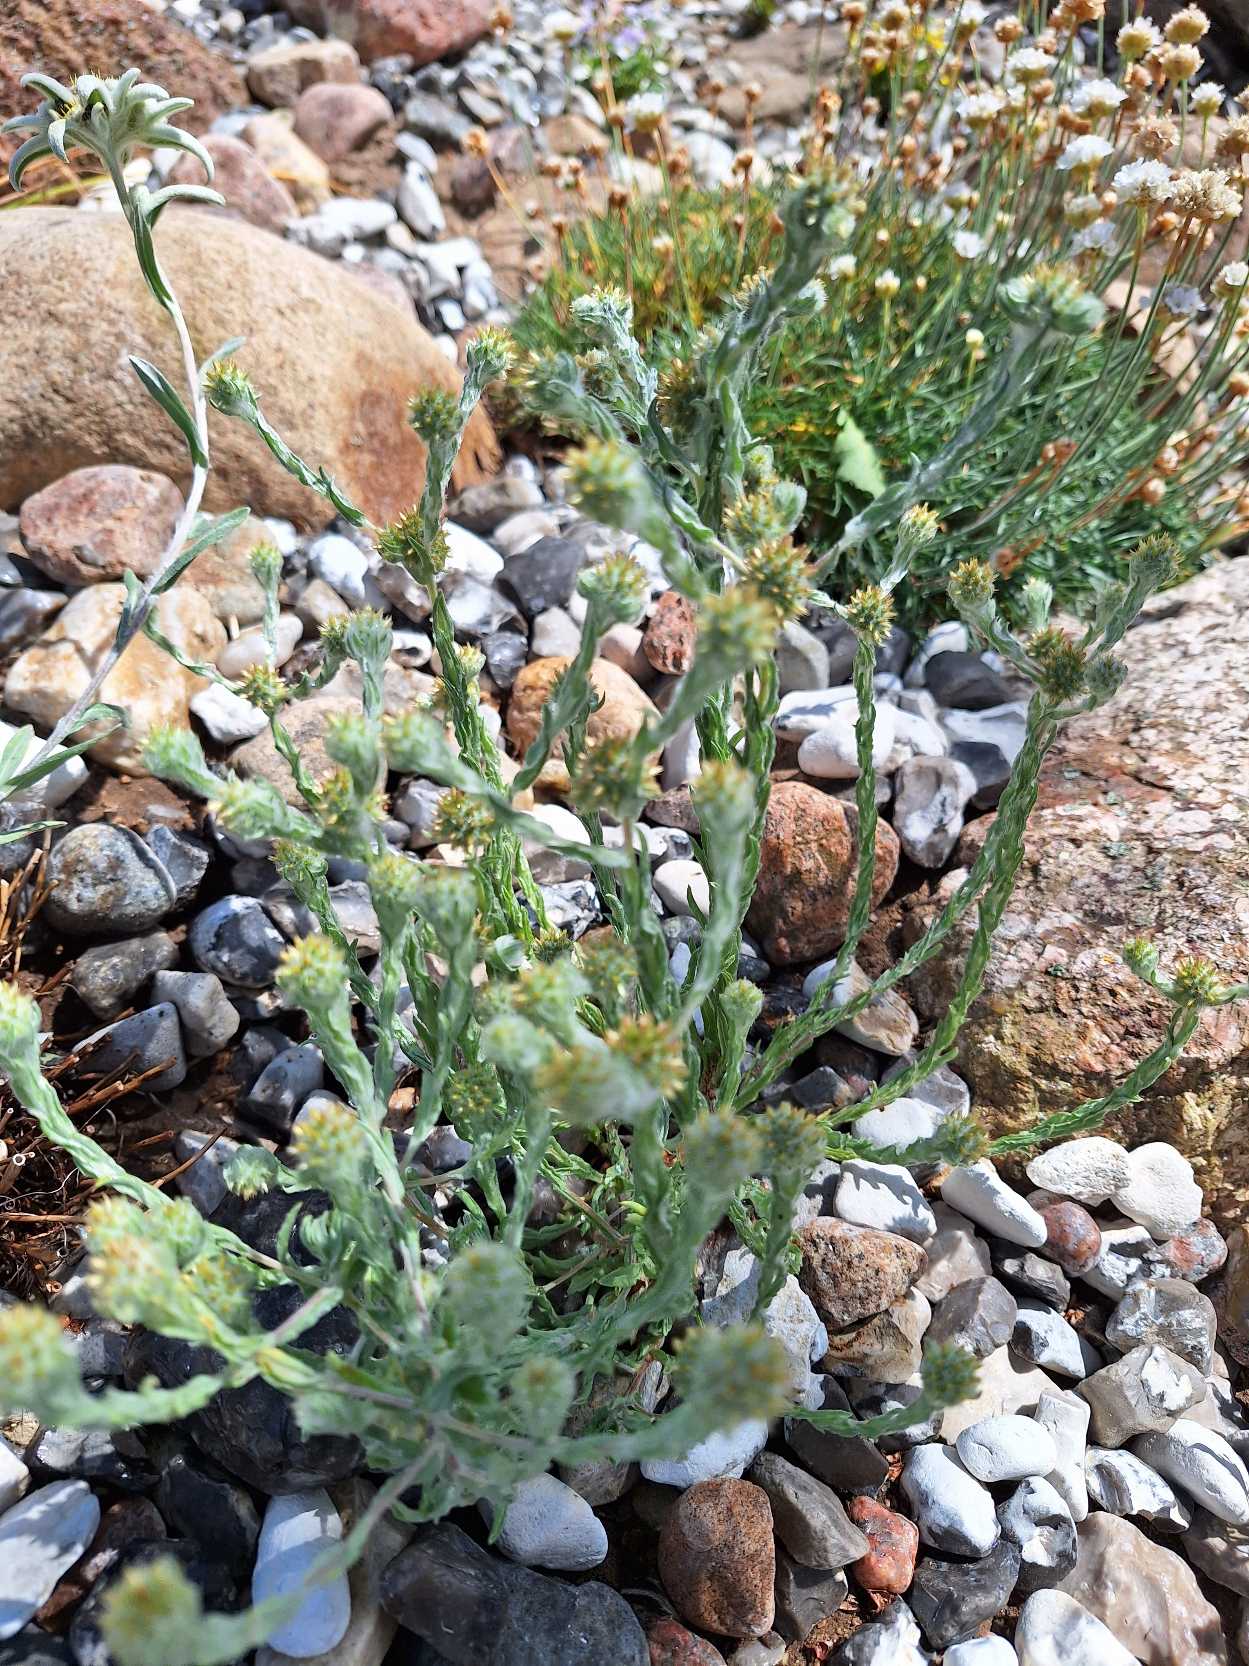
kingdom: Plantae
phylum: Tracheophyta
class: Magnoliopsida
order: Asterales
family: Asteraceae
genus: Filago
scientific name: Filago germanica
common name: Kugle-museurt
